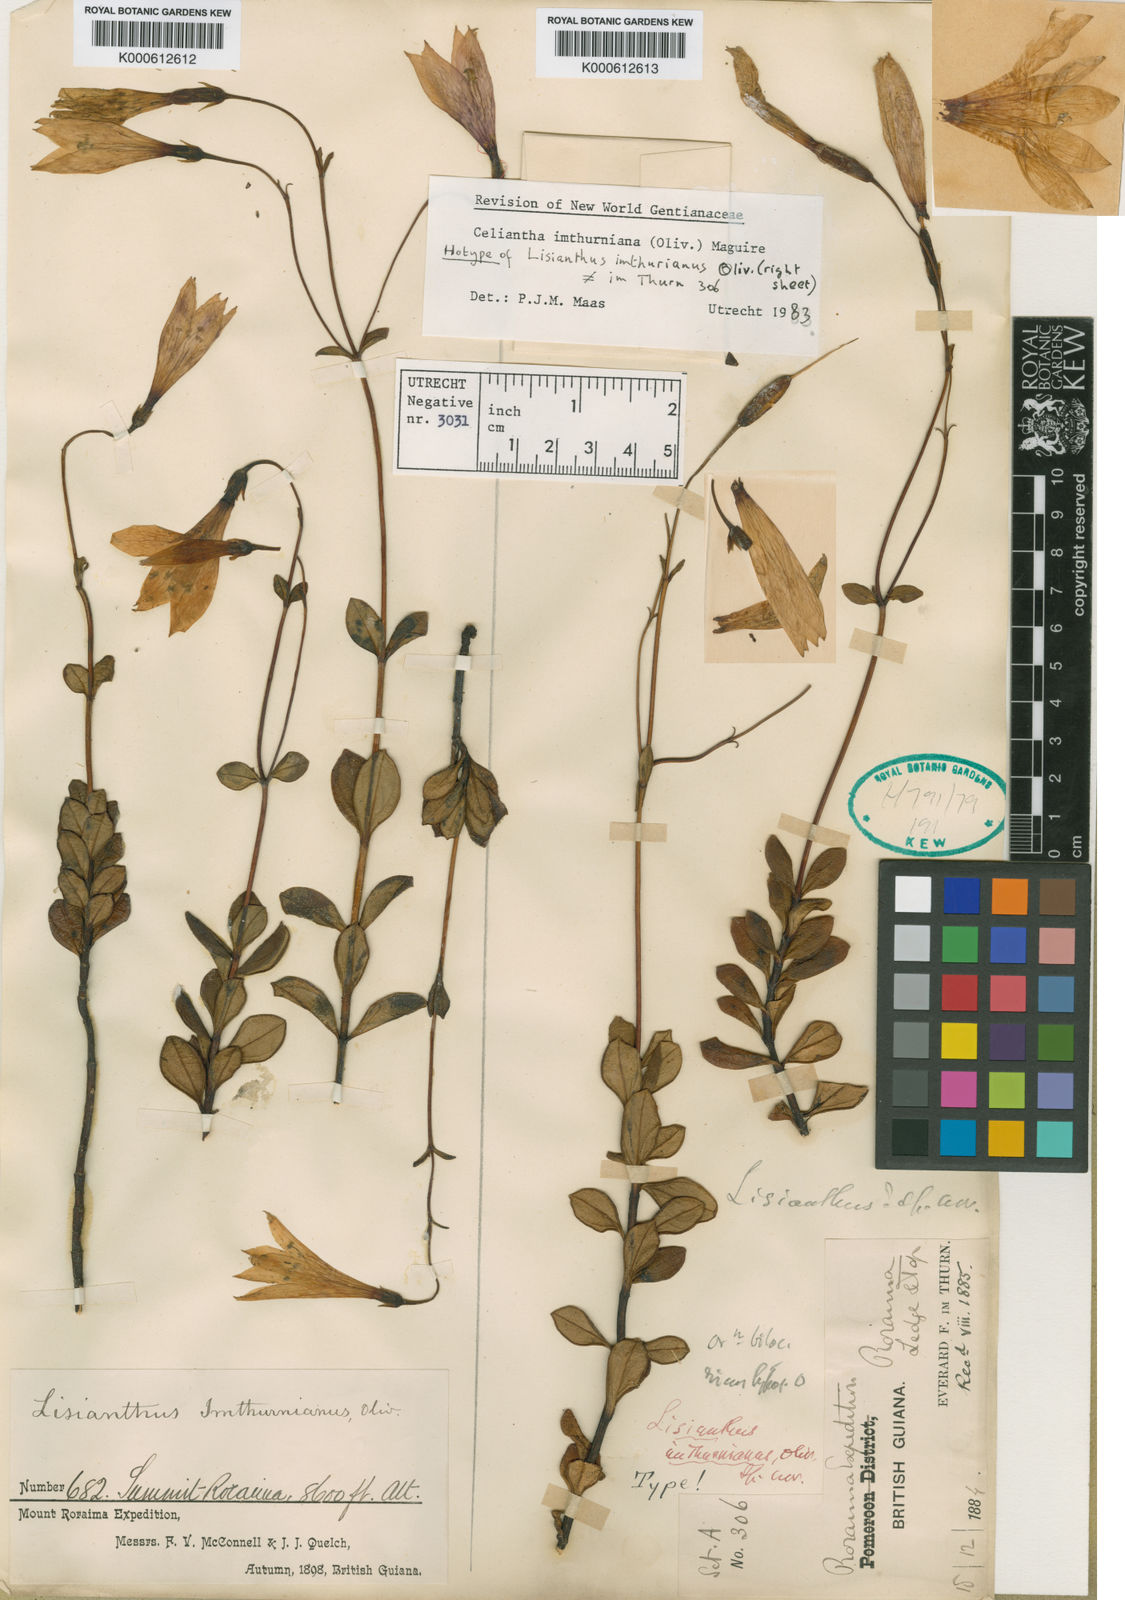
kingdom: Plantae
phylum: Tracheophyta
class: Magnoliopsida
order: Gentianales
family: Gentianaceae
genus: Celiantha
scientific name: Celiantha imthurniana
